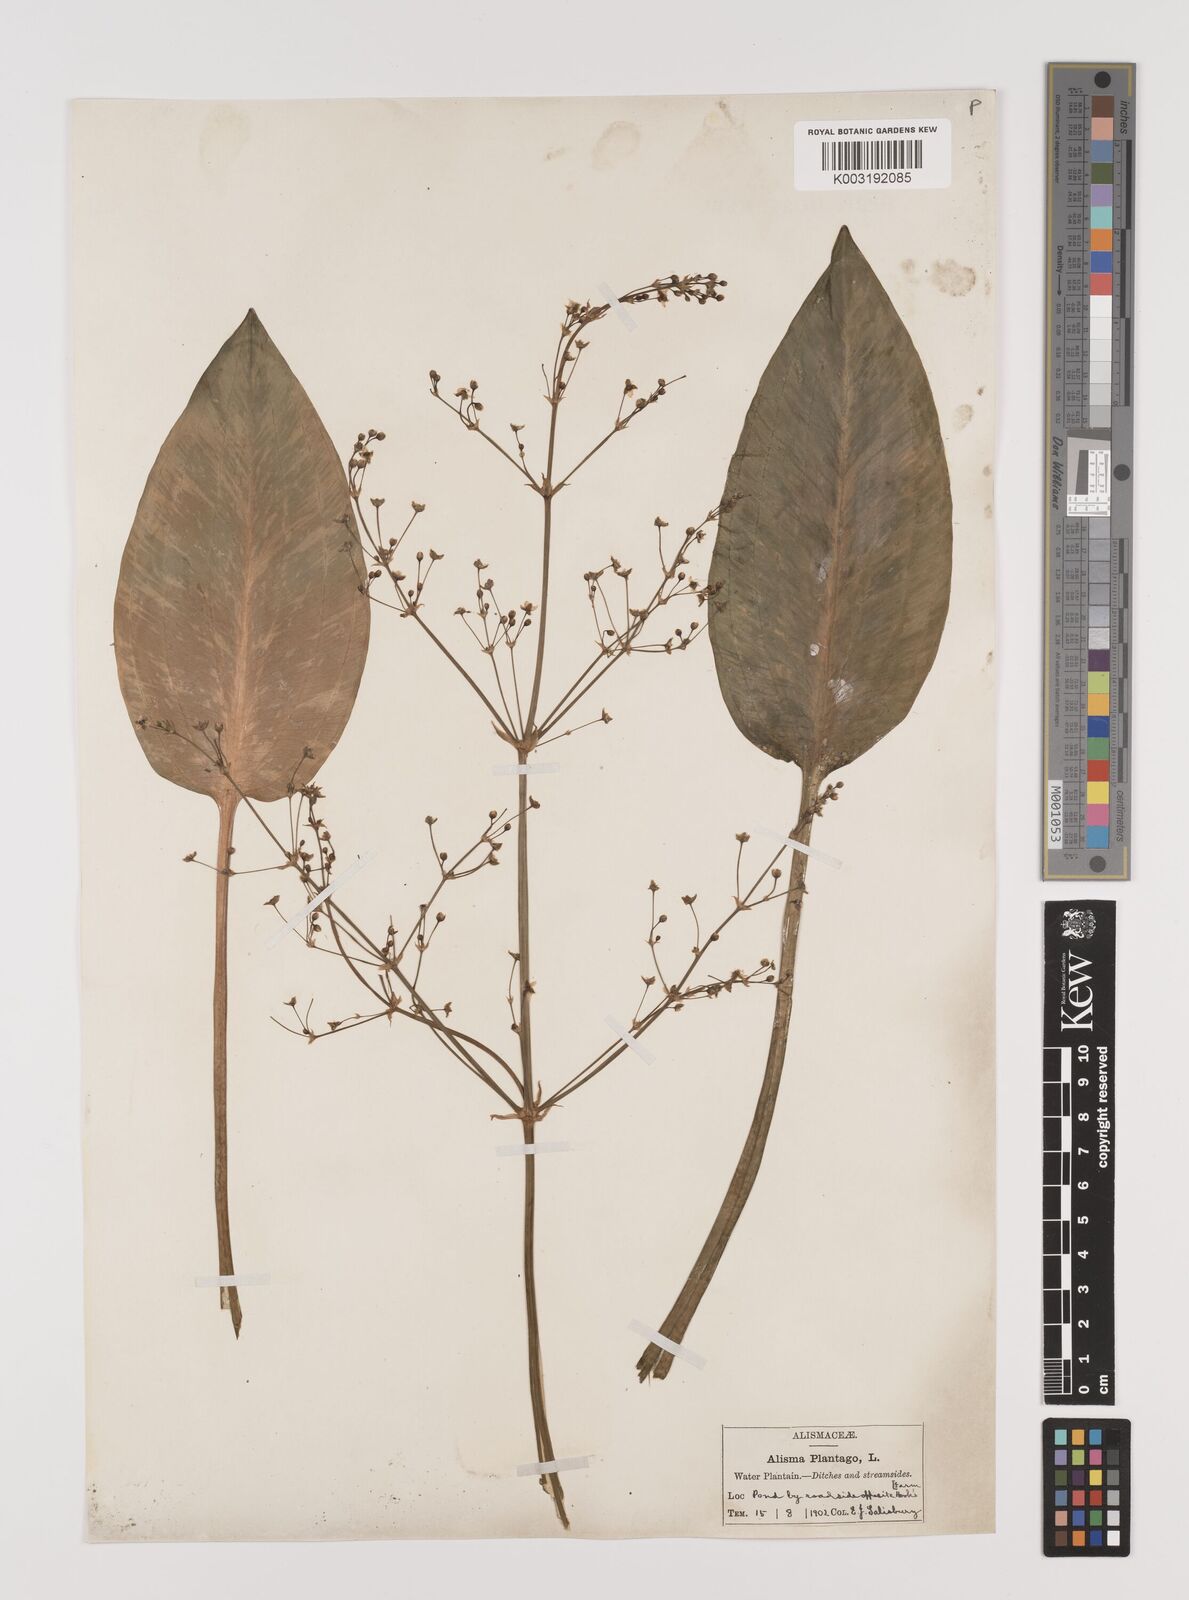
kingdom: Plantae
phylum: Tracheophyta
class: Liliopsida
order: Alismatales
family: Alismataceae
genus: Alisma
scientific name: Alisma plantago-aquatica
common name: Water-plantain
